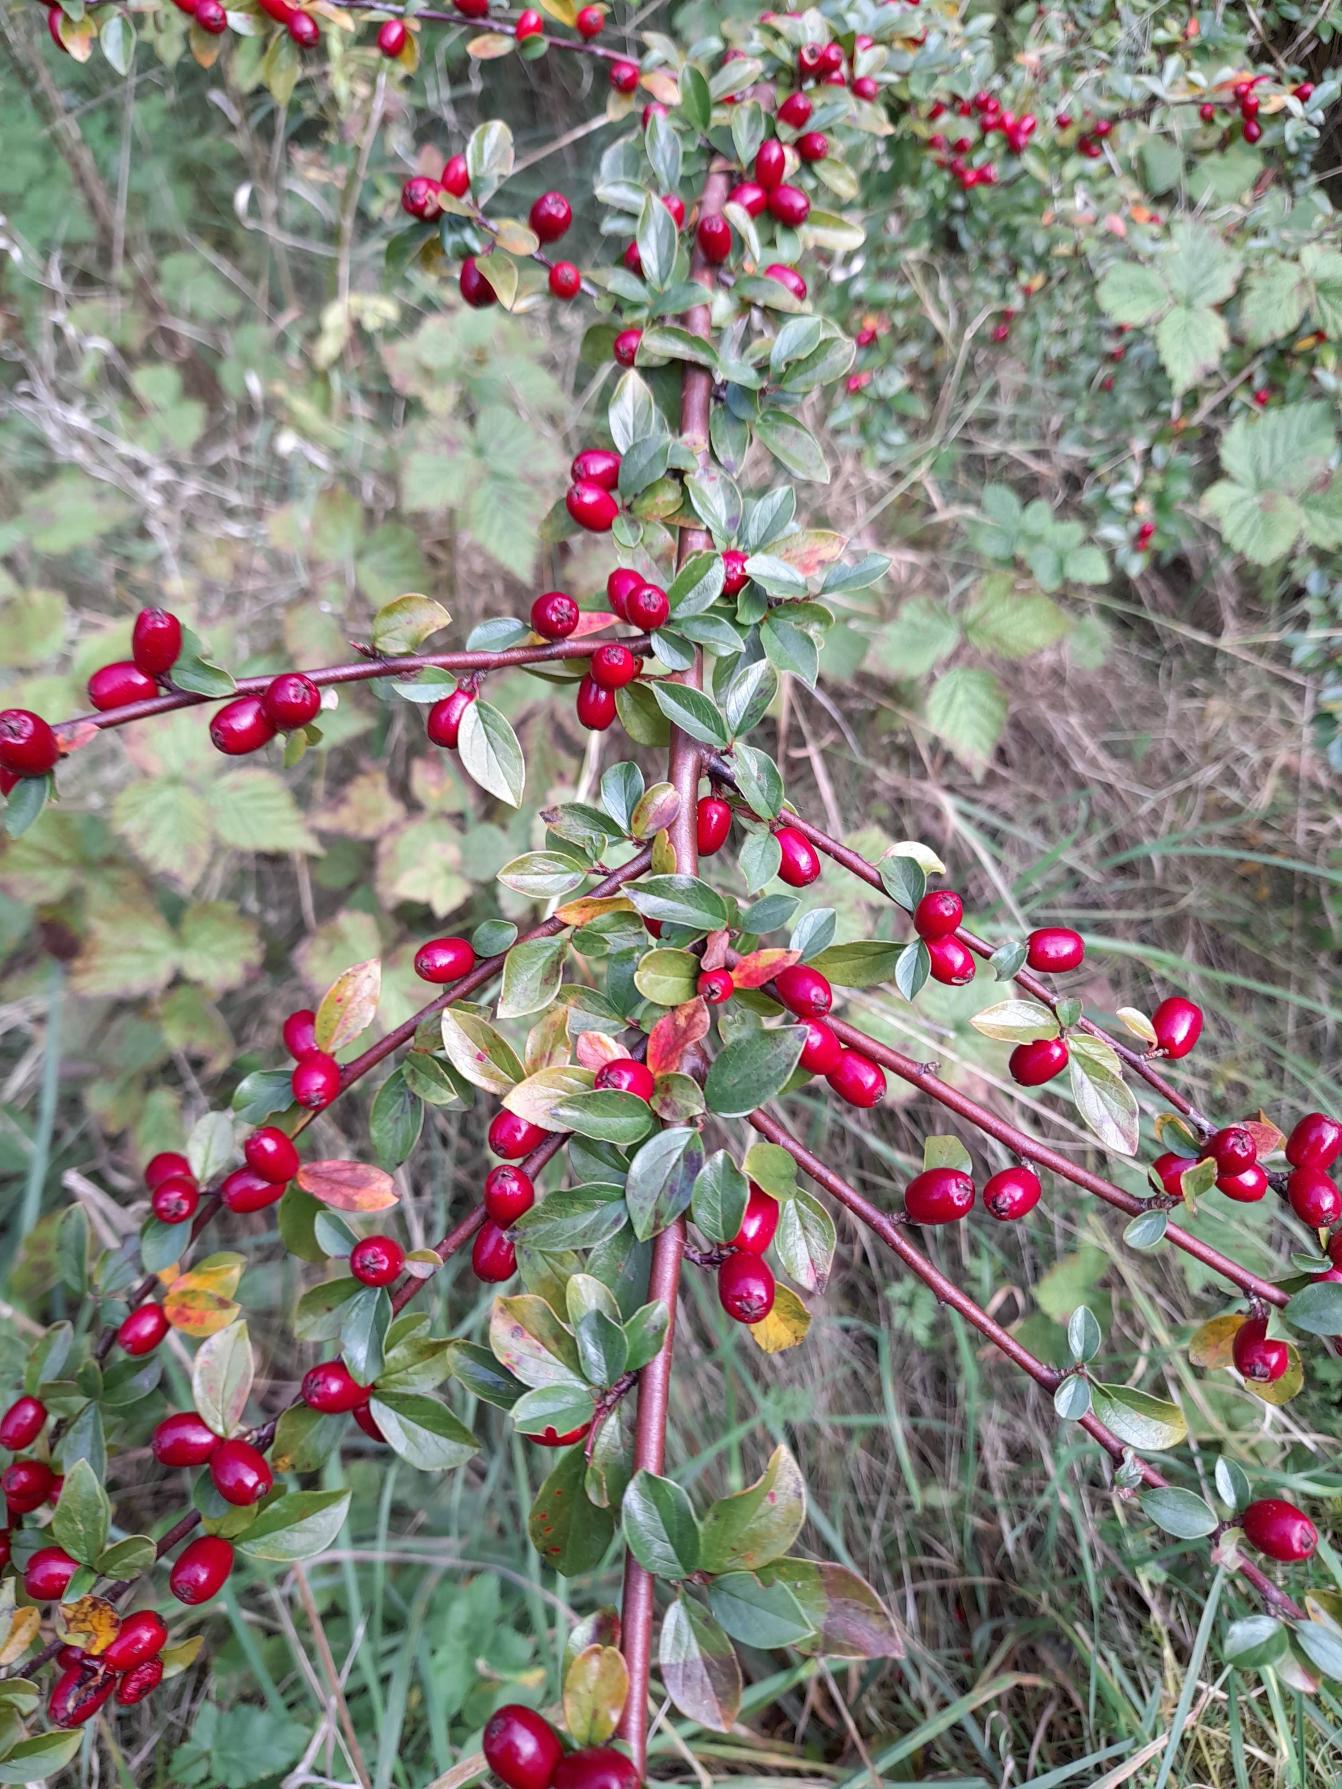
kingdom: Plantae
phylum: Tracheophyta
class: Magnoliopsida
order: Rosales
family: Rosaceae
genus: Cotoneaster
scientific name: Cotoneaster divaricatus
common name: Vifte-dværgmispel
